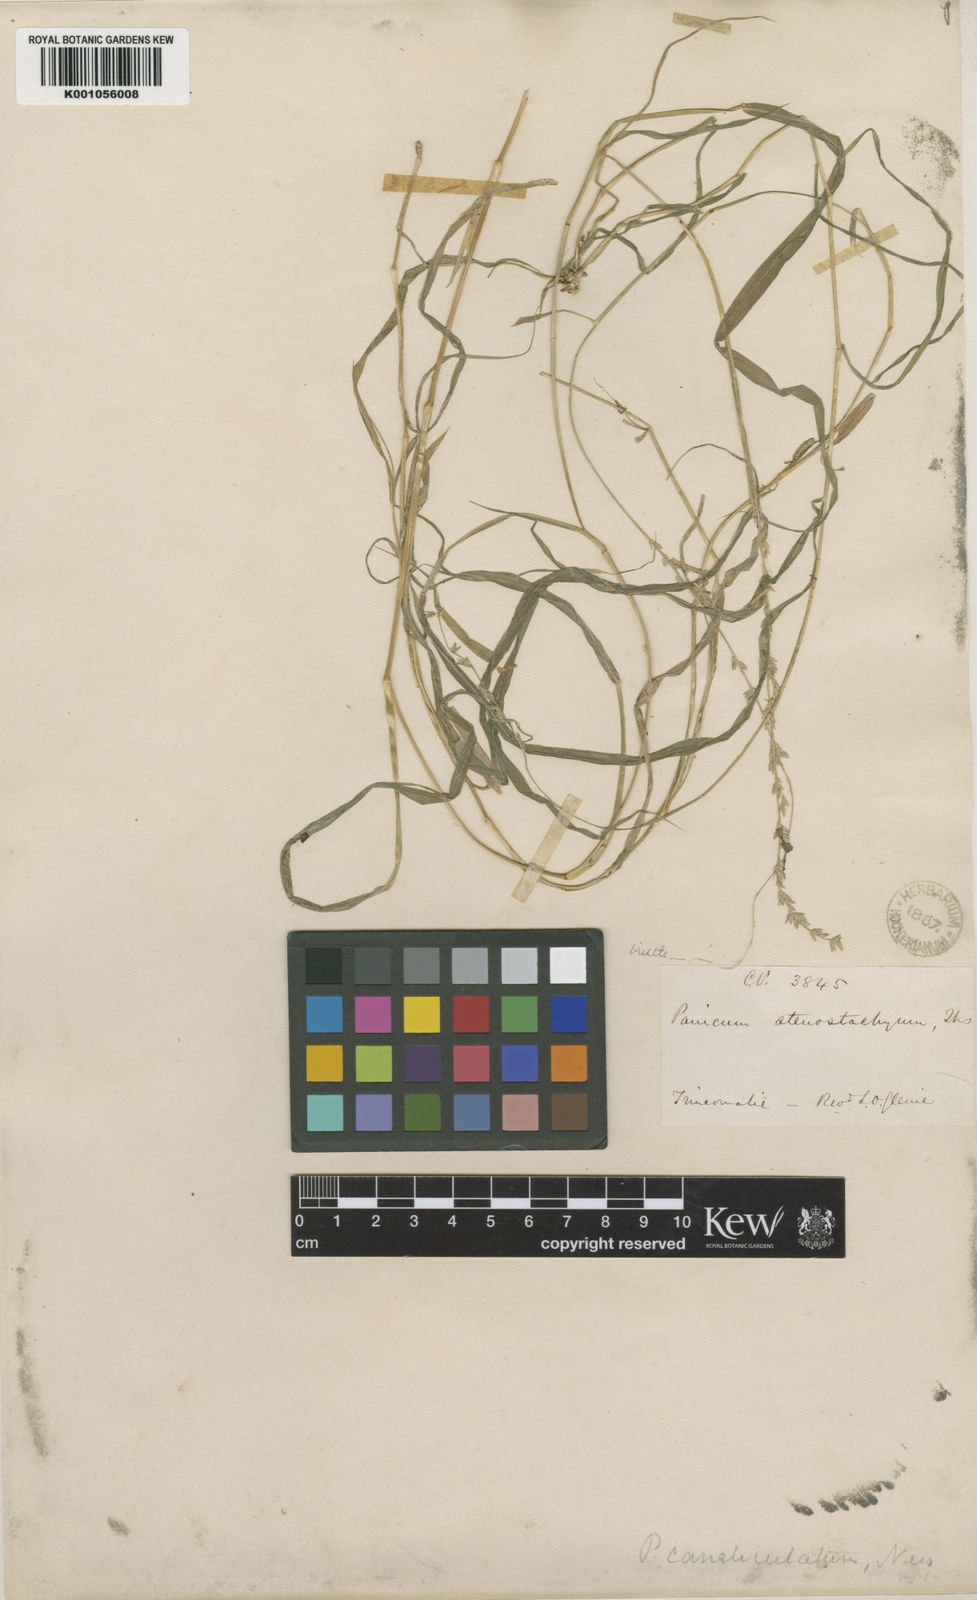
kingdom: Plantae
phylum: Tracheophyta
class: Liliopsida
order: Poales
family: Poaceae
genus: Holcolemma
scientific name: Holcolemma canaliculatum
